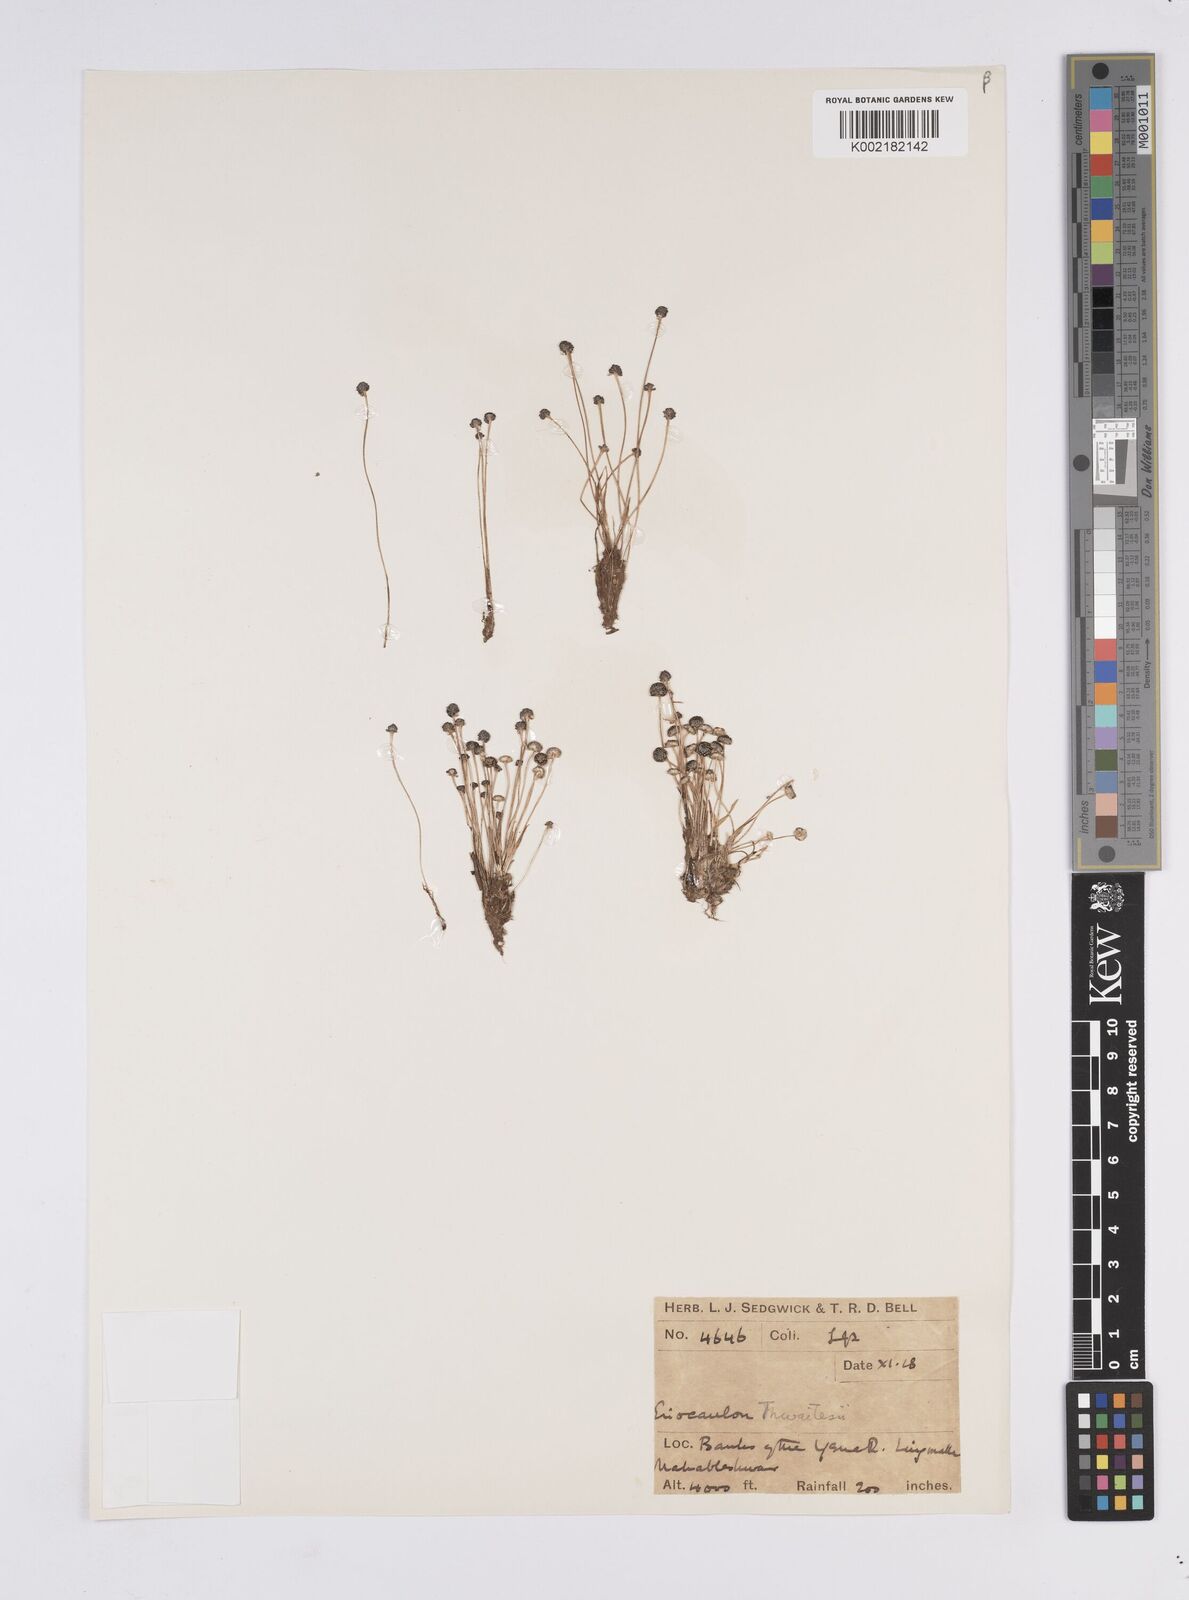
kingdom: Plantae
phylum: Tracheophyta
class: Liliopsida
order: Poales
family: Eriocaulaceae
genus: Eriocaulon
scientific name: Eriocaulon
